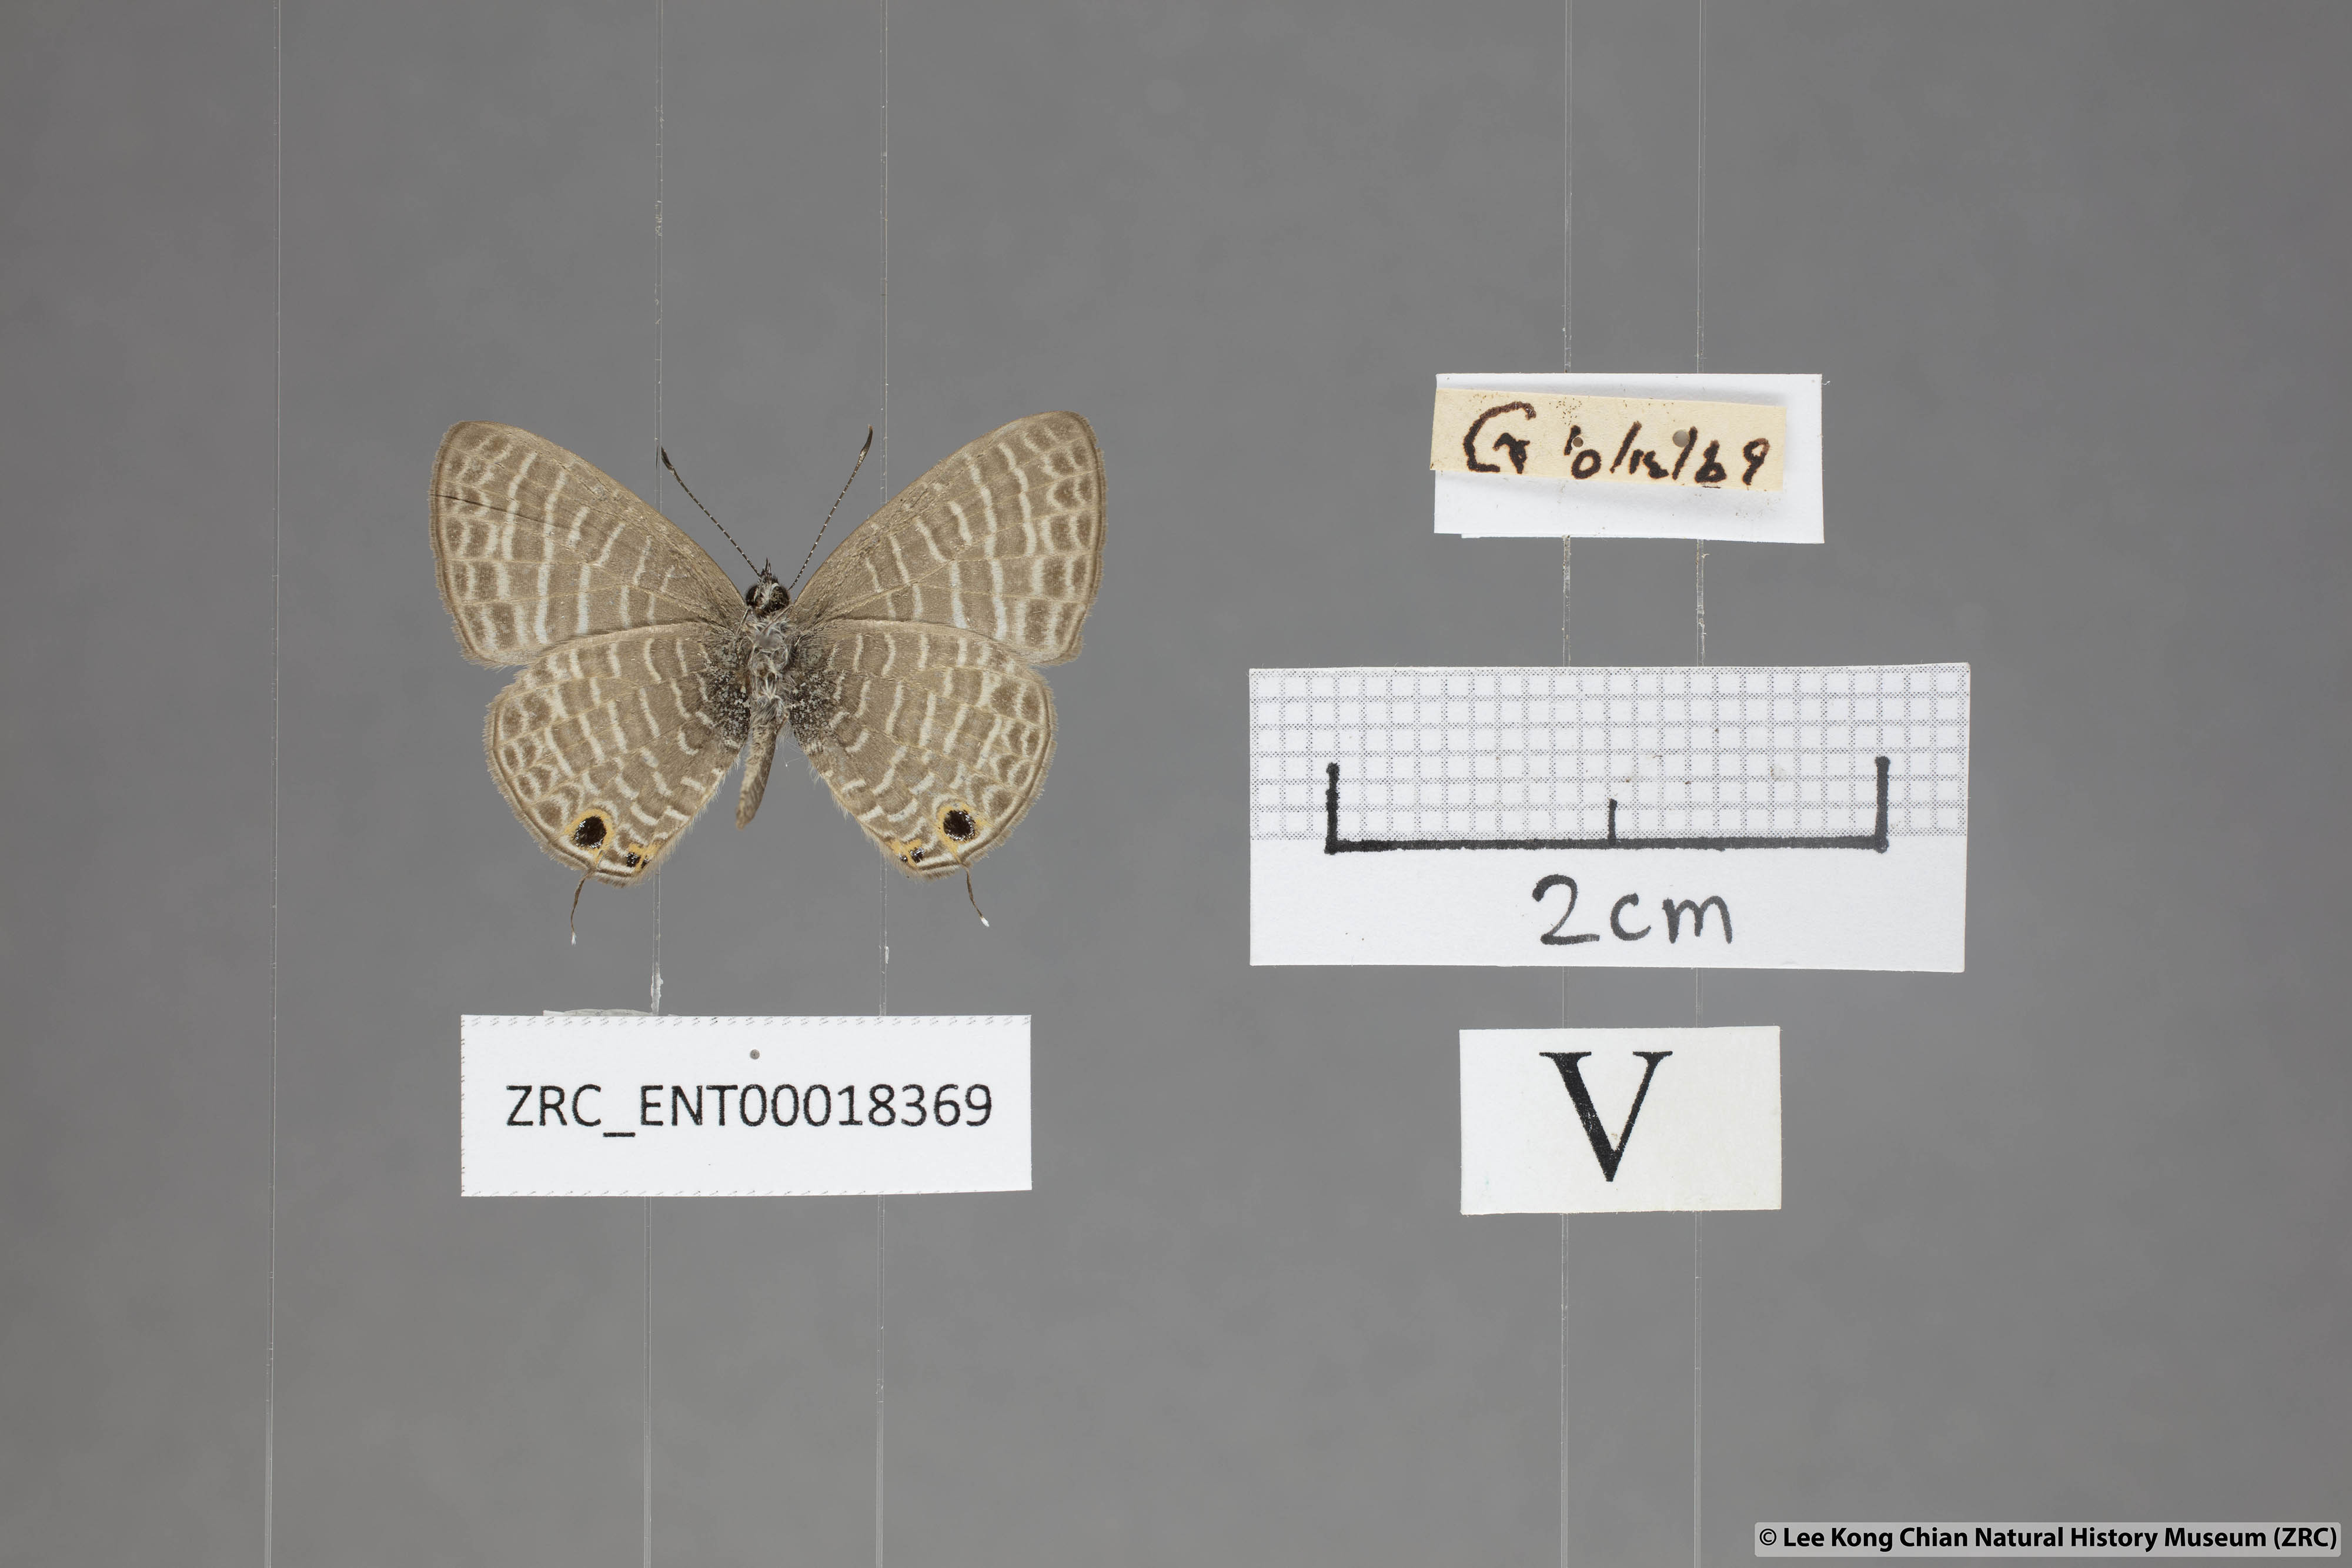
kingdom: Animalia
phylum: Arthropoda
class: Insecta
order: Lepidoptera
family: Lycaenidae
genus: Nacaduba
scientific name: Nacaduba kurava
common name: Transparent 6-line blue
